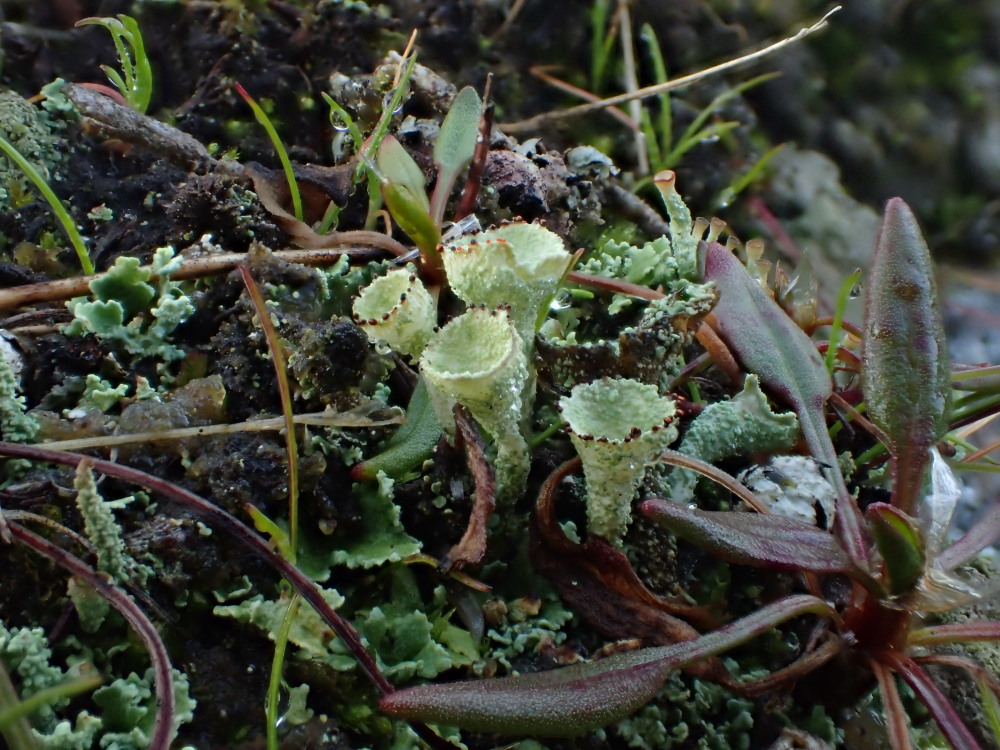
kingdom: Fungi
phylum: Ascomycota
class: Lecanoromycetes
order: Lecanorales
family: Cladoniaceae
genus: Cladonia
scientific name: Cladonia diversa
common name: rød bægerlav
